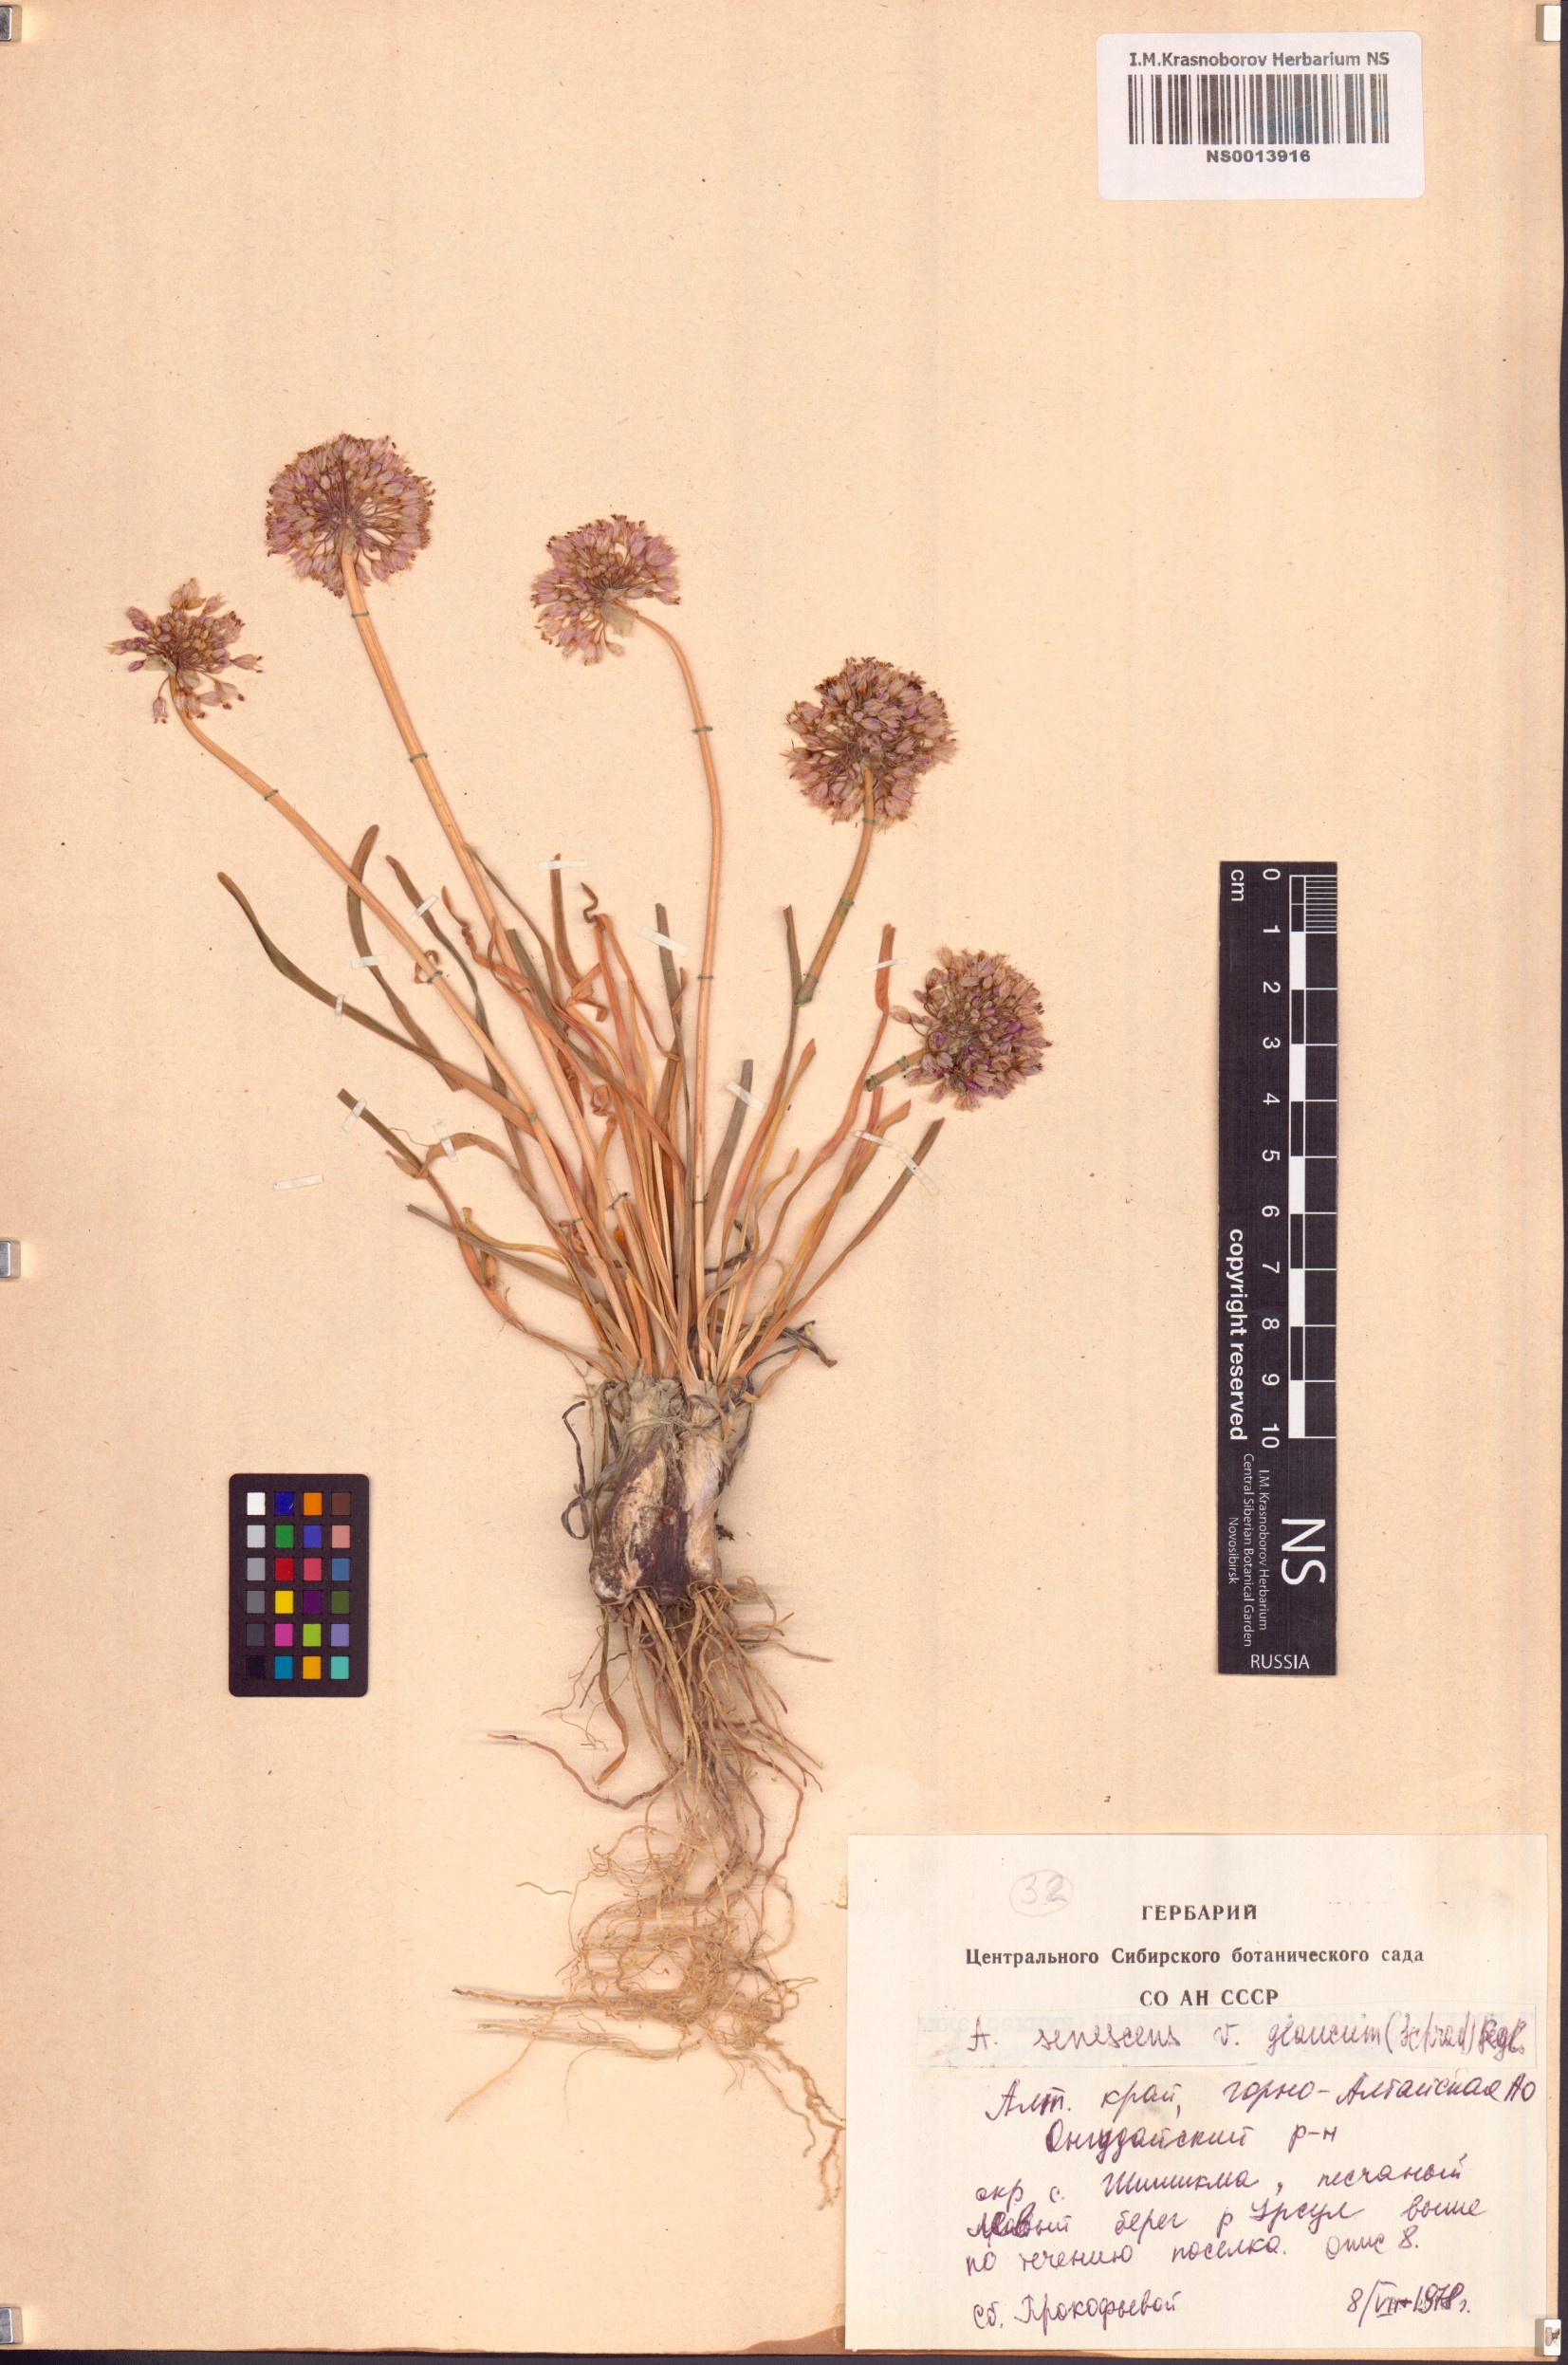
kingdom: Plantae
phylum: Tracheophyta
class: Liliopsida
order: Asparagales
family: Amaryllidaceae
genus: Allium
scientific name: Allium senescens
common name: German garlic
